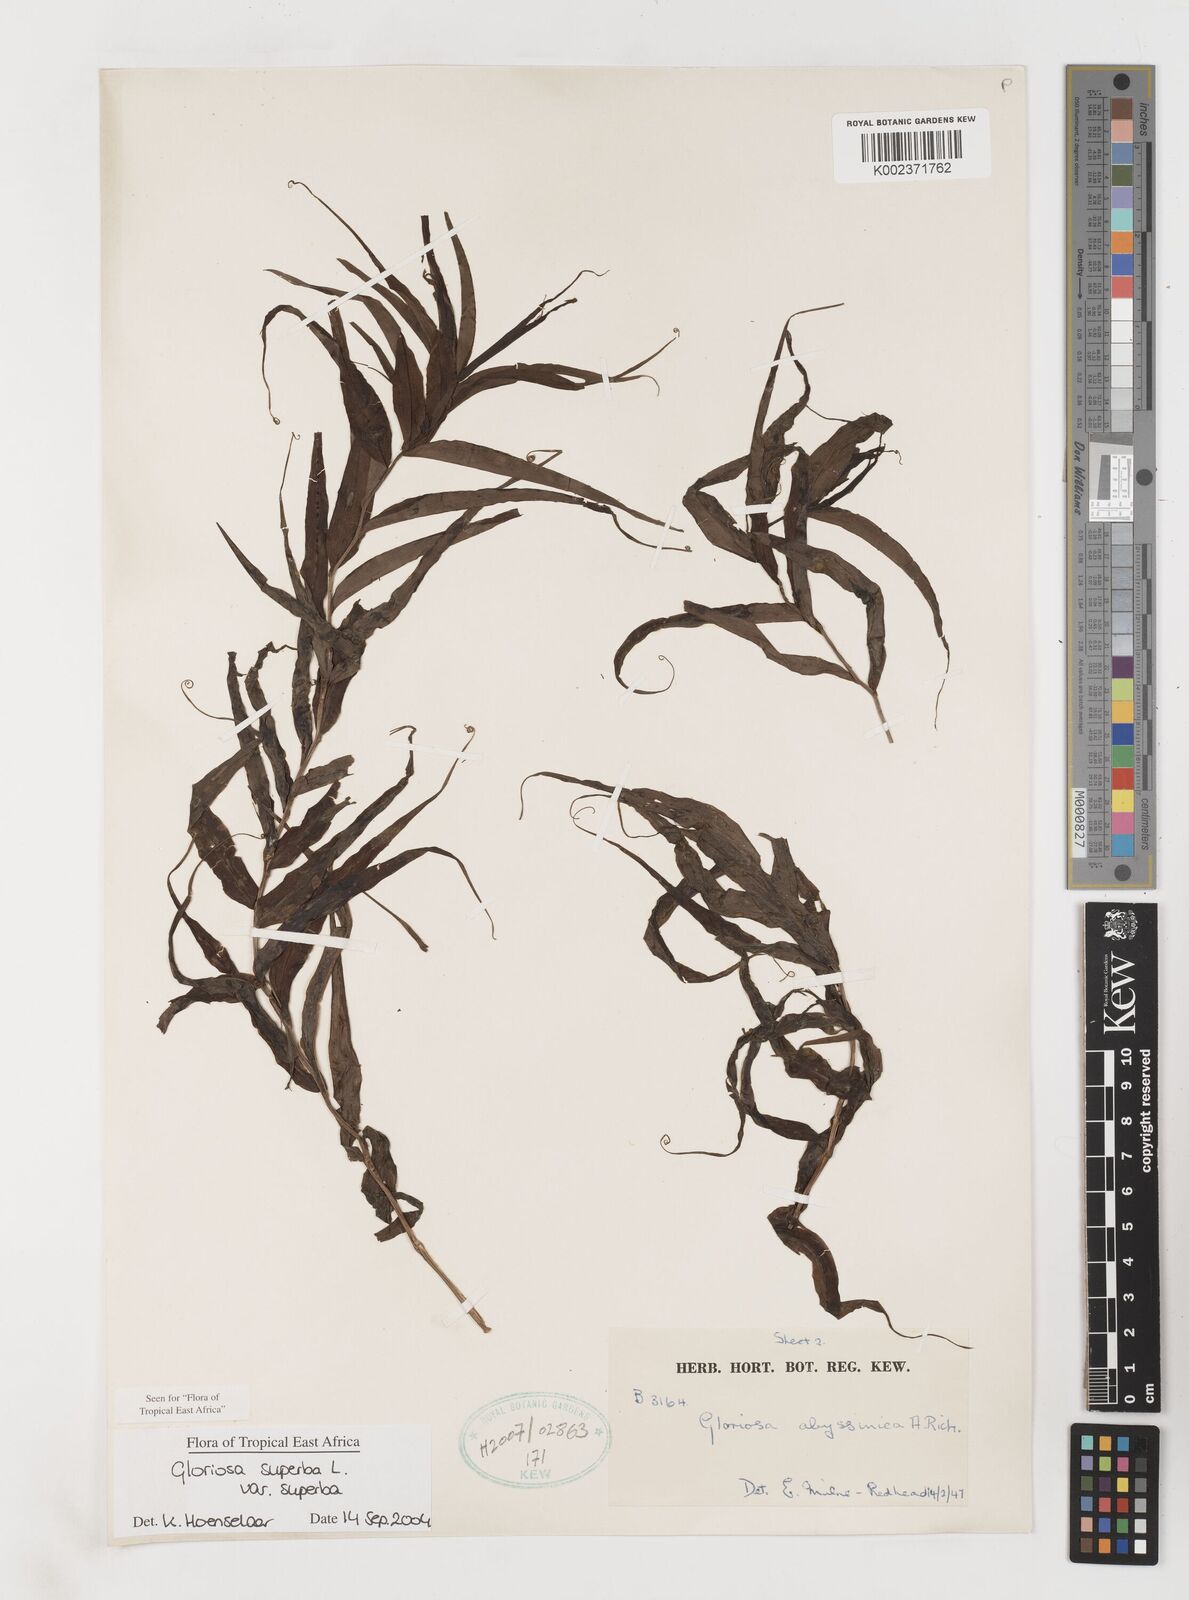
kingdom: Plantae
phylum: Tracheophyta
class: Liliopsida
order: Liliales
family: Colchicaceae
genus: Gloriosa
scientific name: Gloriosa superba
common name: Flame lily
